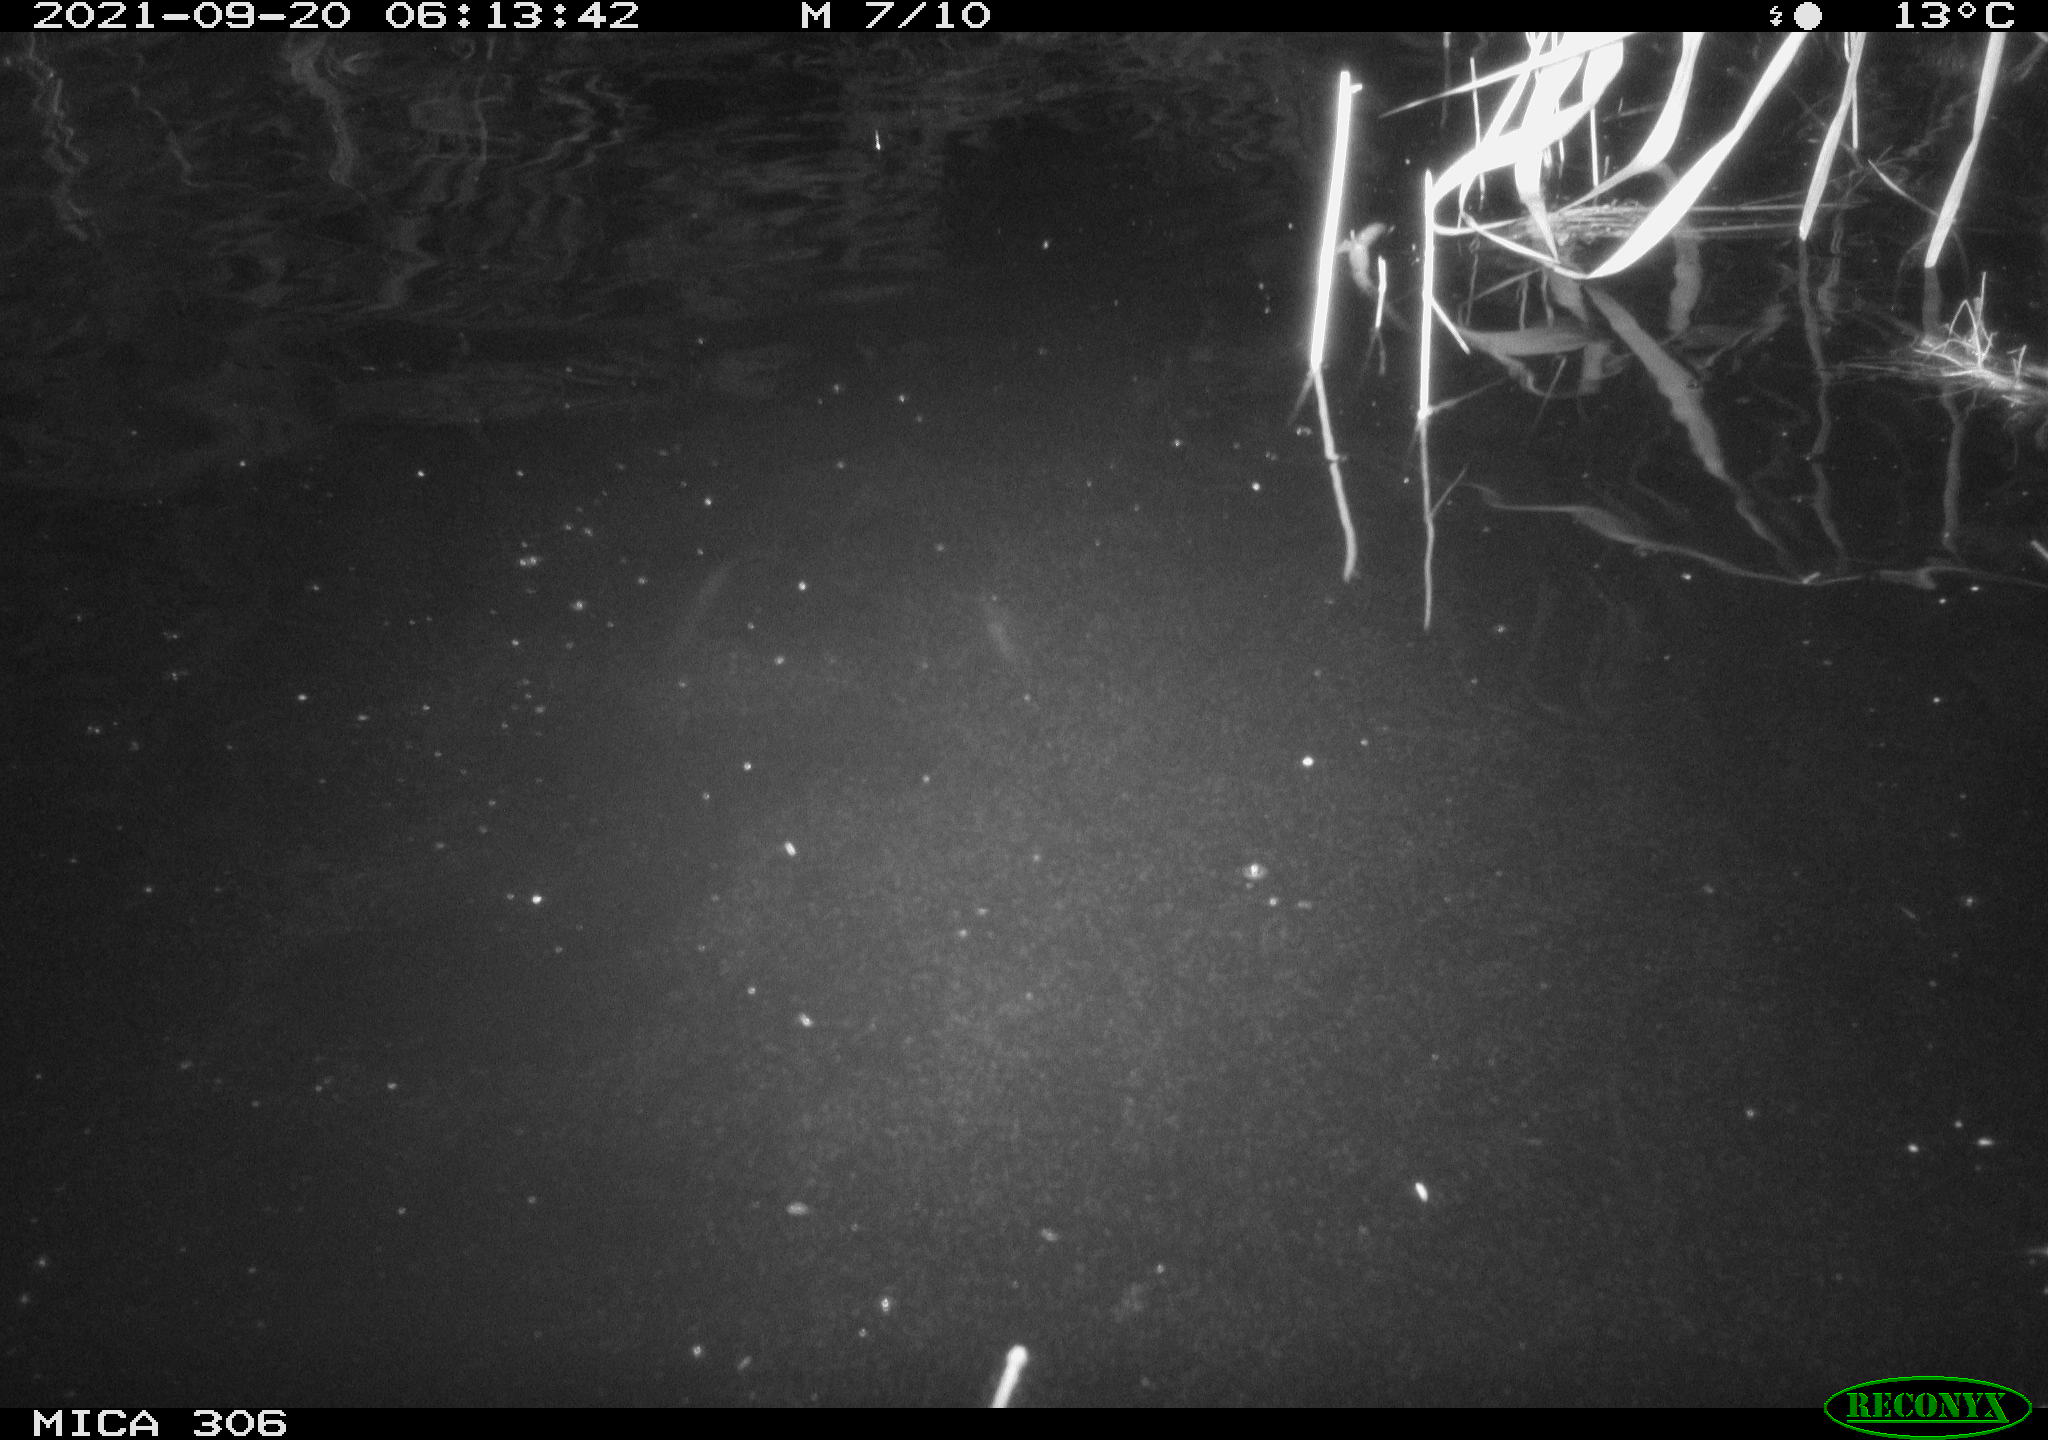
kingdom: Animalia
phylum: Chordata
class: Mammalia
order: Rodentia
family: Cricetidae
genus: Ondatra
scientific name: Ondatra zibethicus
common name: Muskrat
